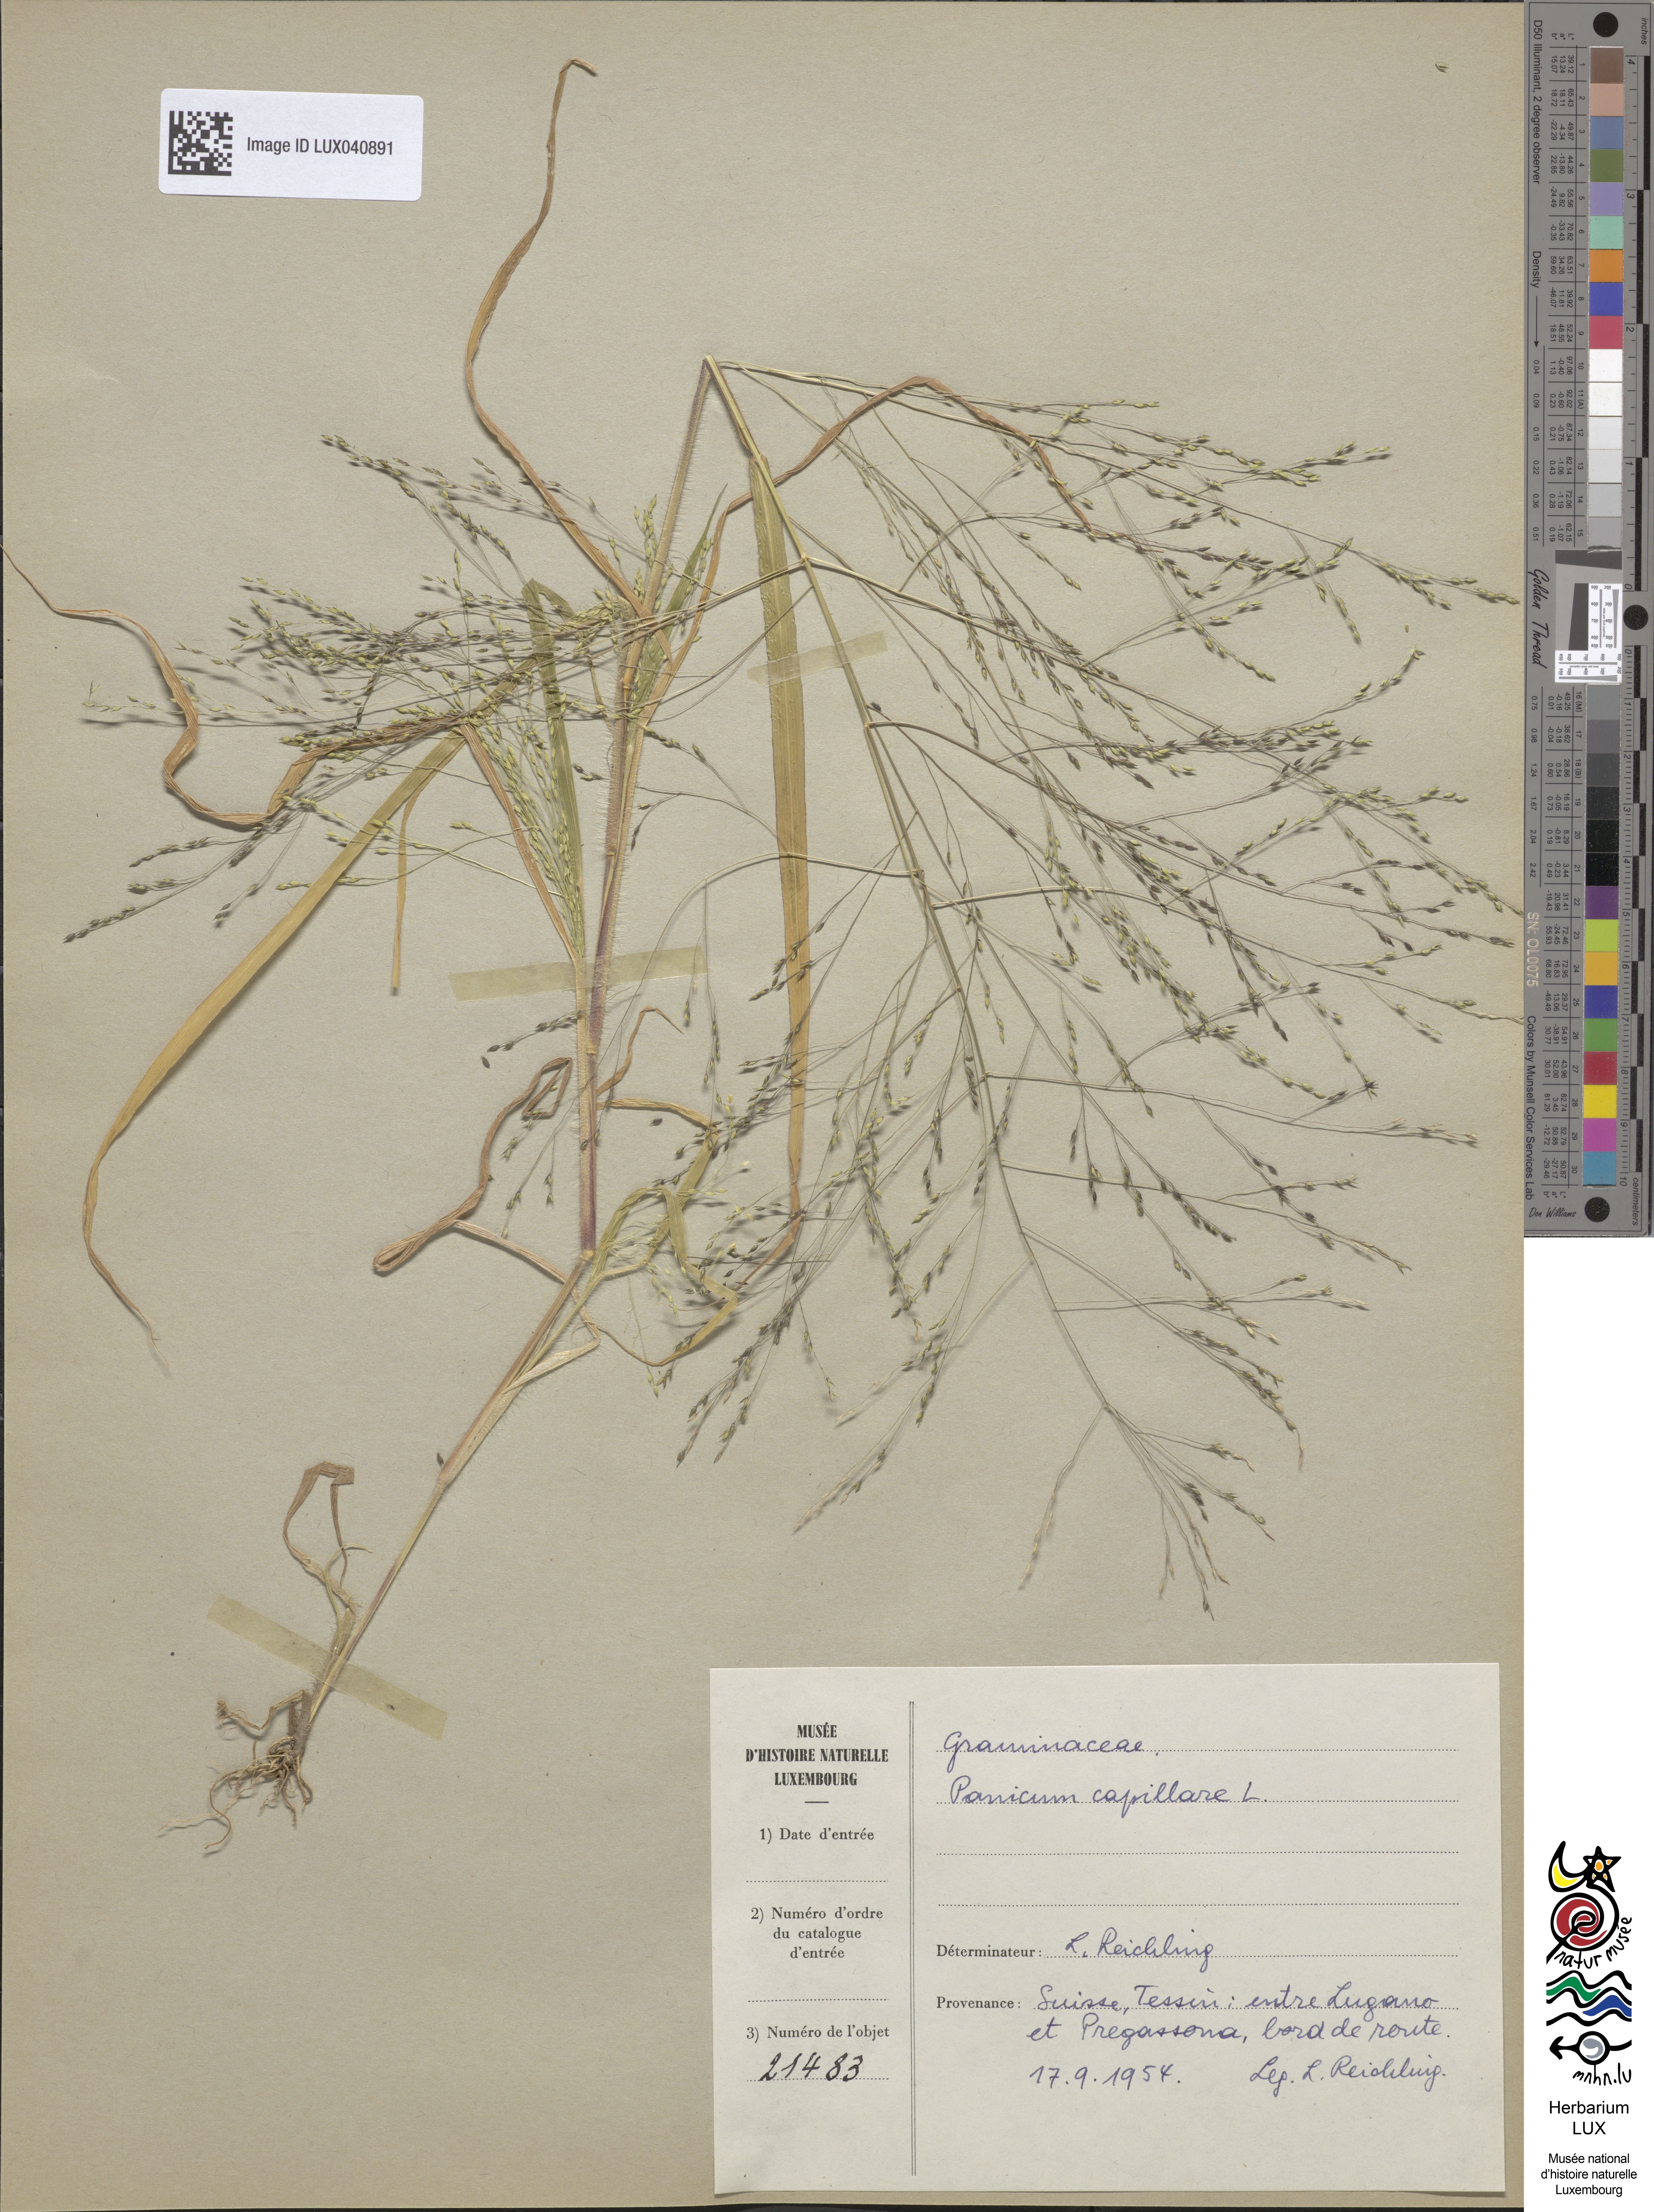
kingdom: Plantae
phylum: Tracheophyta
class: Liliopsida
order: Poales
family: Poaceae
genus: Panicum
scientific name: Panicum capillare
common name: Witch-grass
